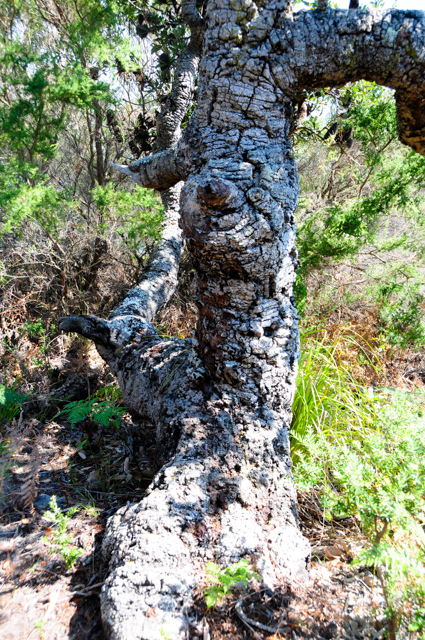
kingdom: Plantae
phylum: Tracheophyta
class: Magnoliopsida
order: Proteales
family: Proteaceae
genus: Banksia
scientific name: Banksia serrata
